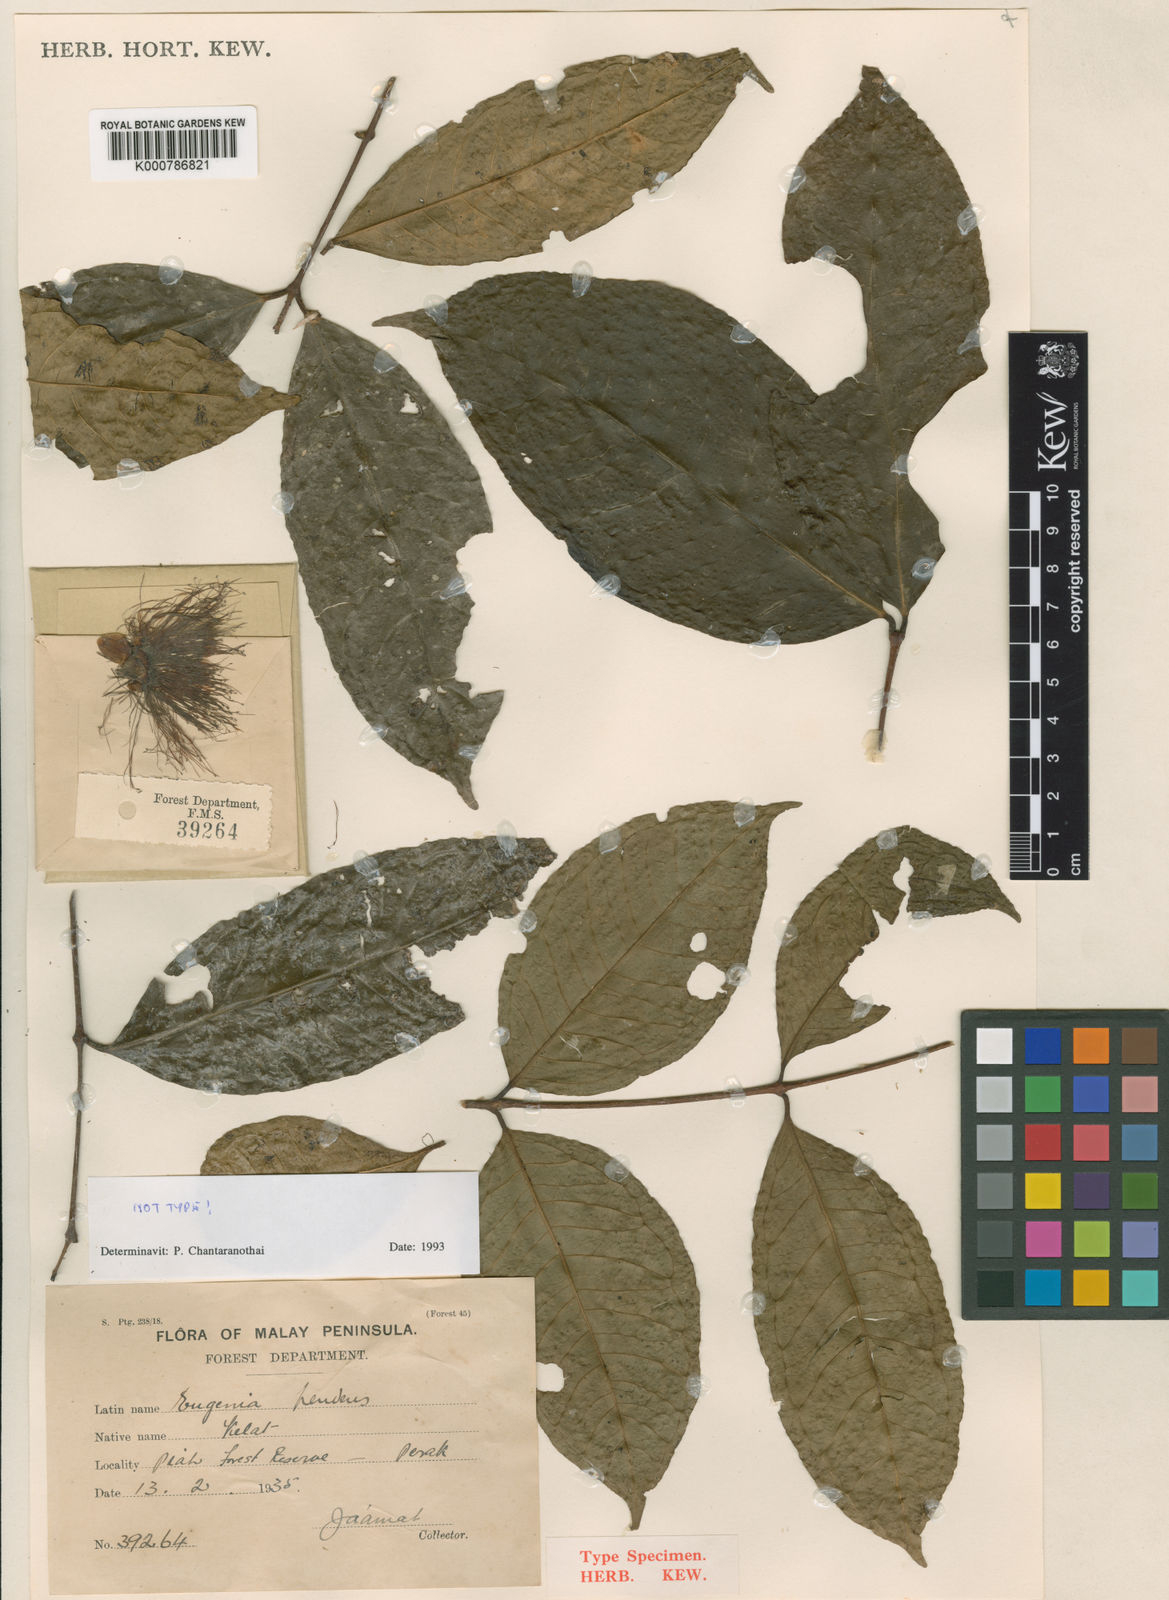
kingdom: Plantae
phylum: Tracheophyta
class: Magnoliopsida
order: Myrtales
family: Myrtaceae
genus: Syzygium
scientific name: Syzygium pendens
